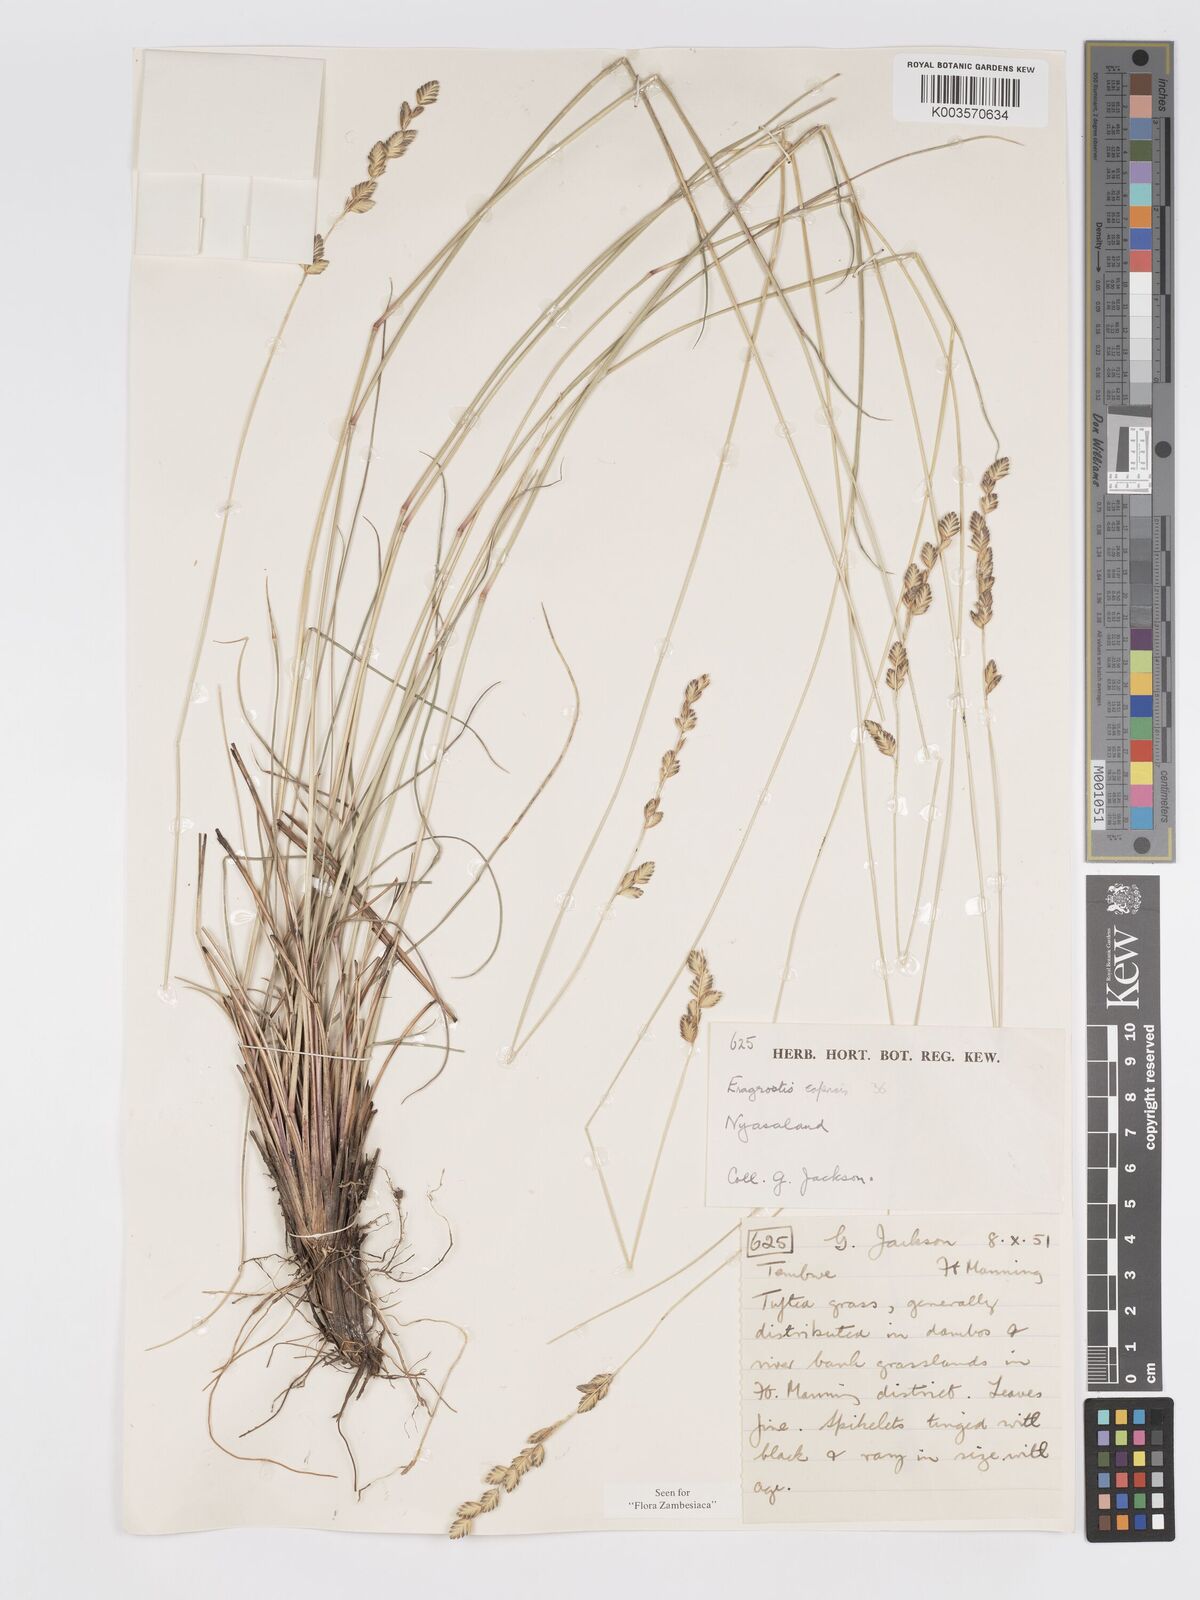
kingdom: Plantae
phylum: Tracheophyta
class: Liliopsida
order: Poales
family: Poaceae
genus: Eragrostis
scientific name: Eragrostis capensis
